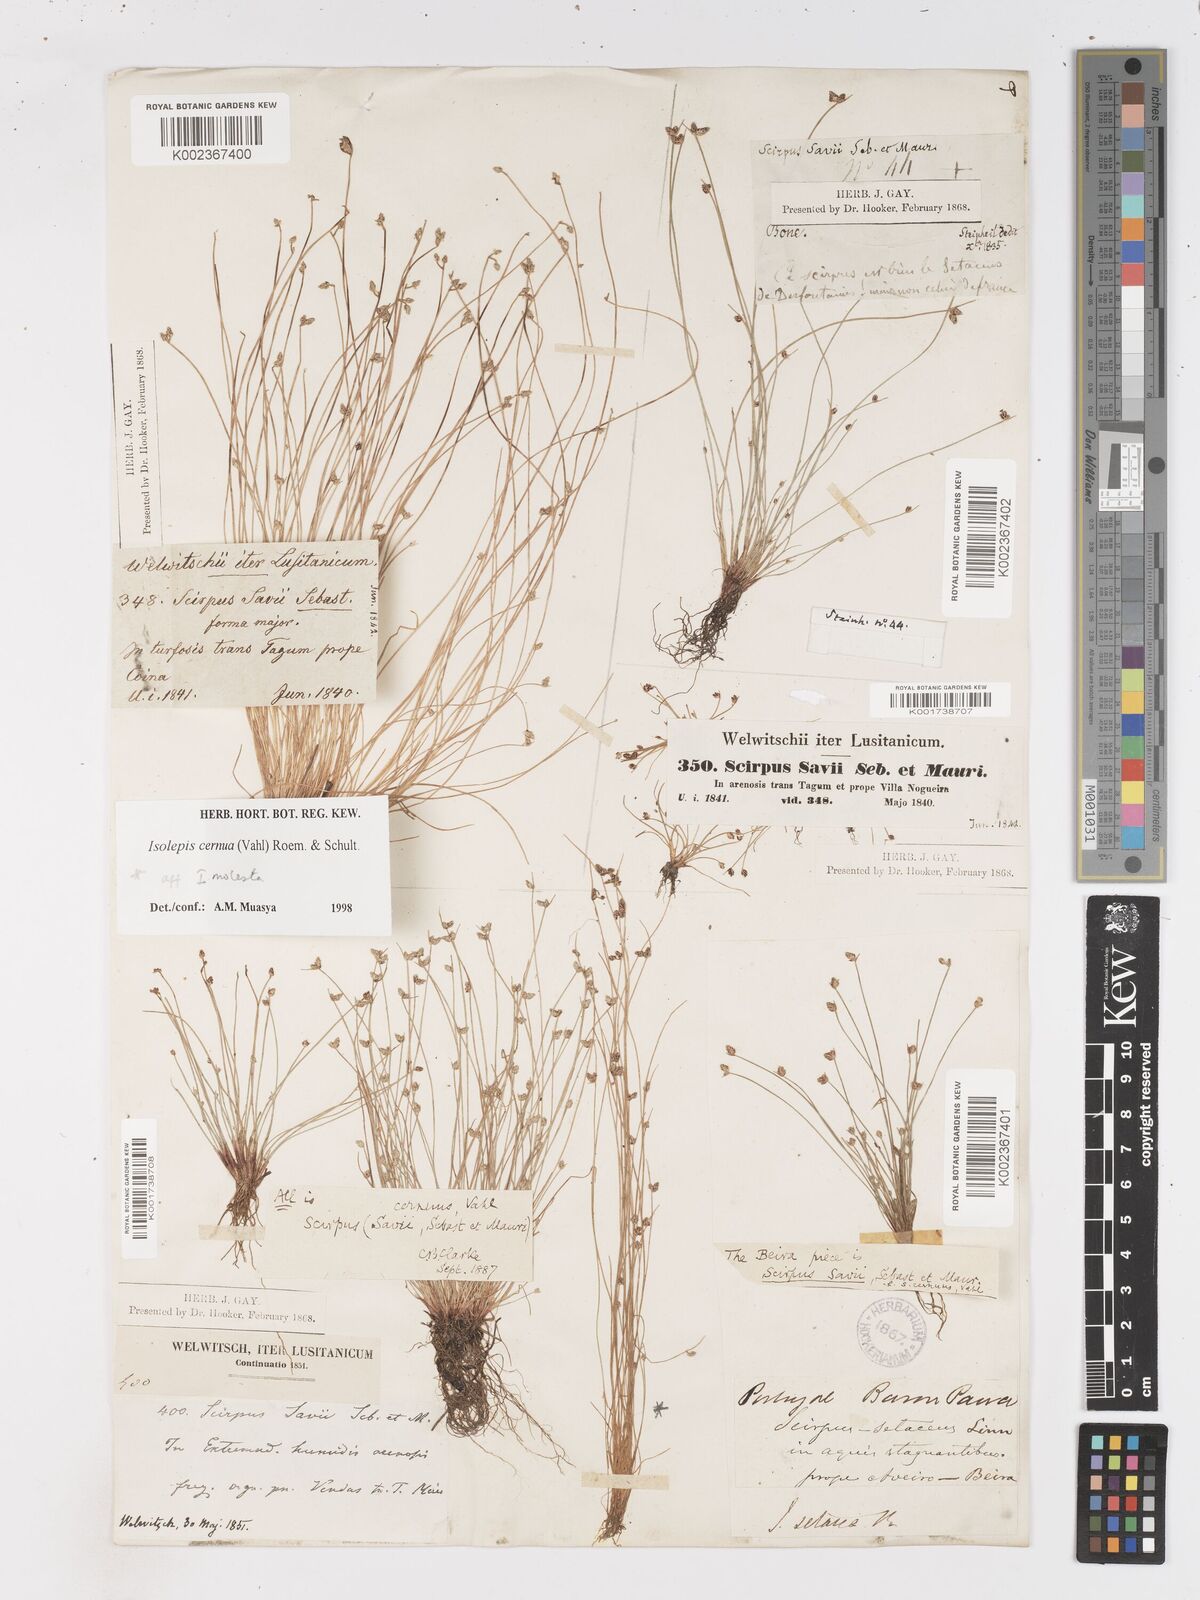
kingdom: Plantae
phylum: Tracheophyta
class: Liliopsida
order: Poales
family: Cyperaceae
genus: Isolepis
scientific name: Isolepis cernua
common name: Slender club-rush
